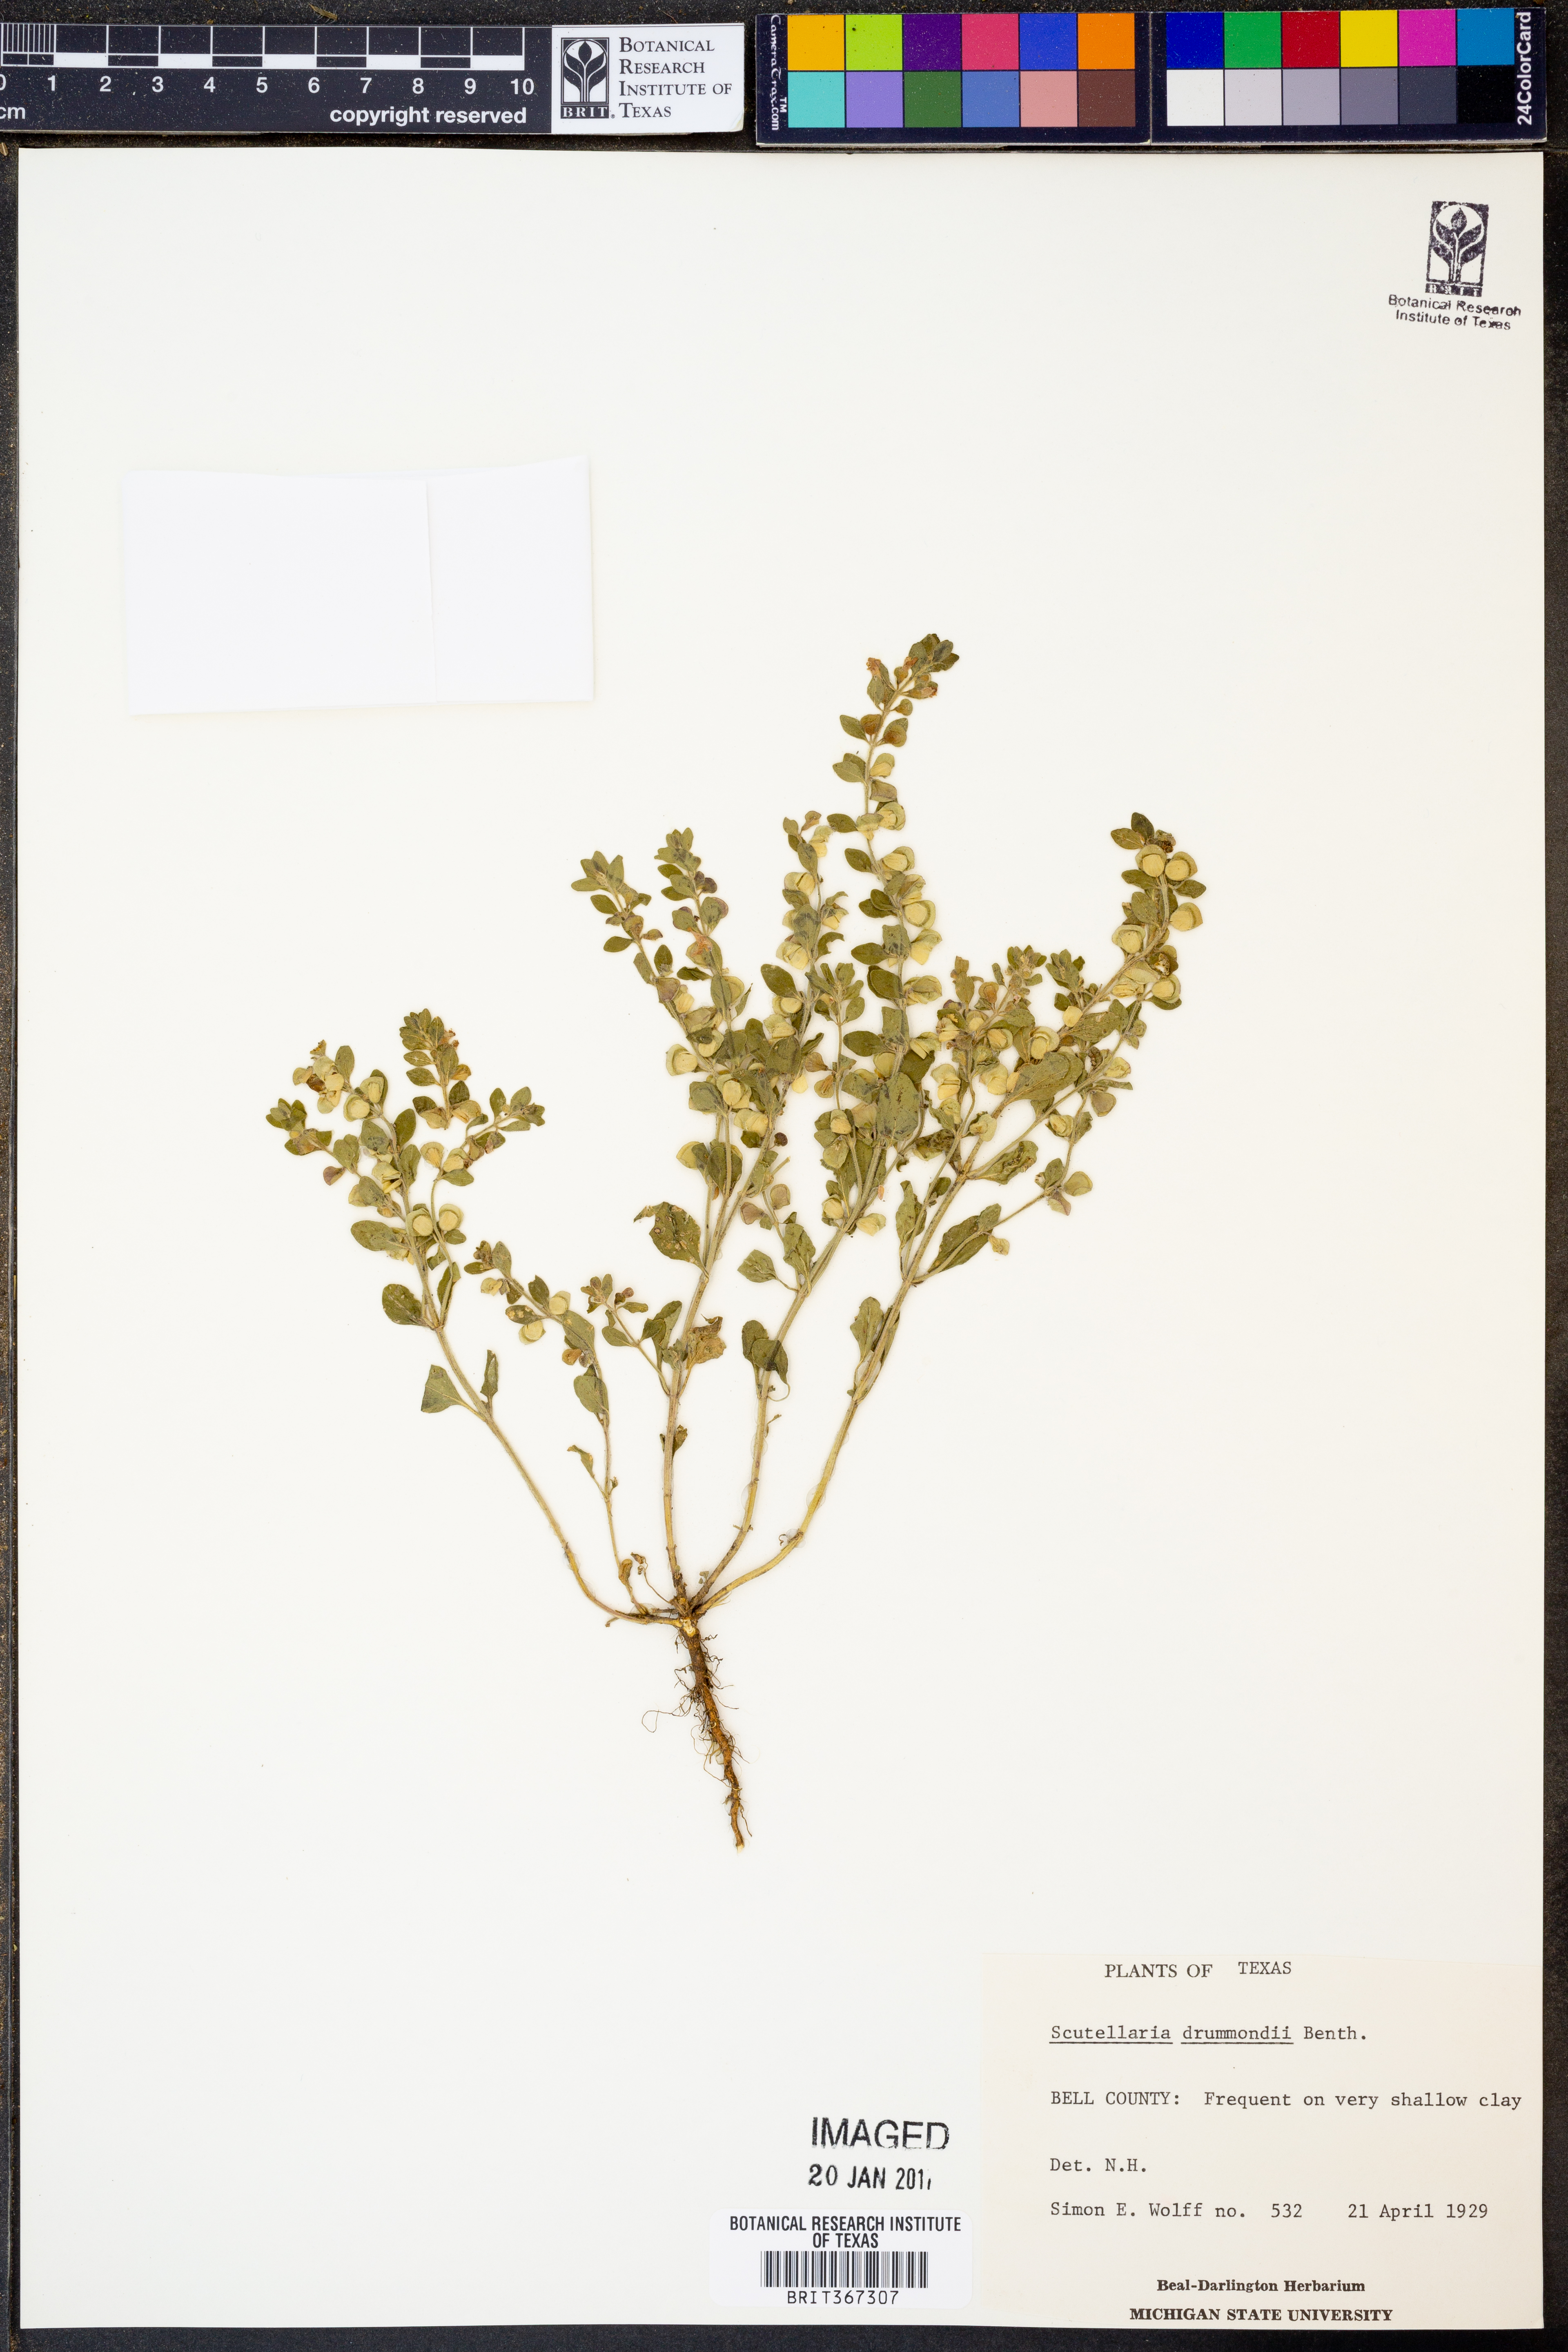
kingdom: Plantae
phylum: Tracheophyta
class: Magnoliopsida
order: Lamiales
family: Lamiaceae
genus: Scutellaria
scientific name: Scutellaria drummondii
